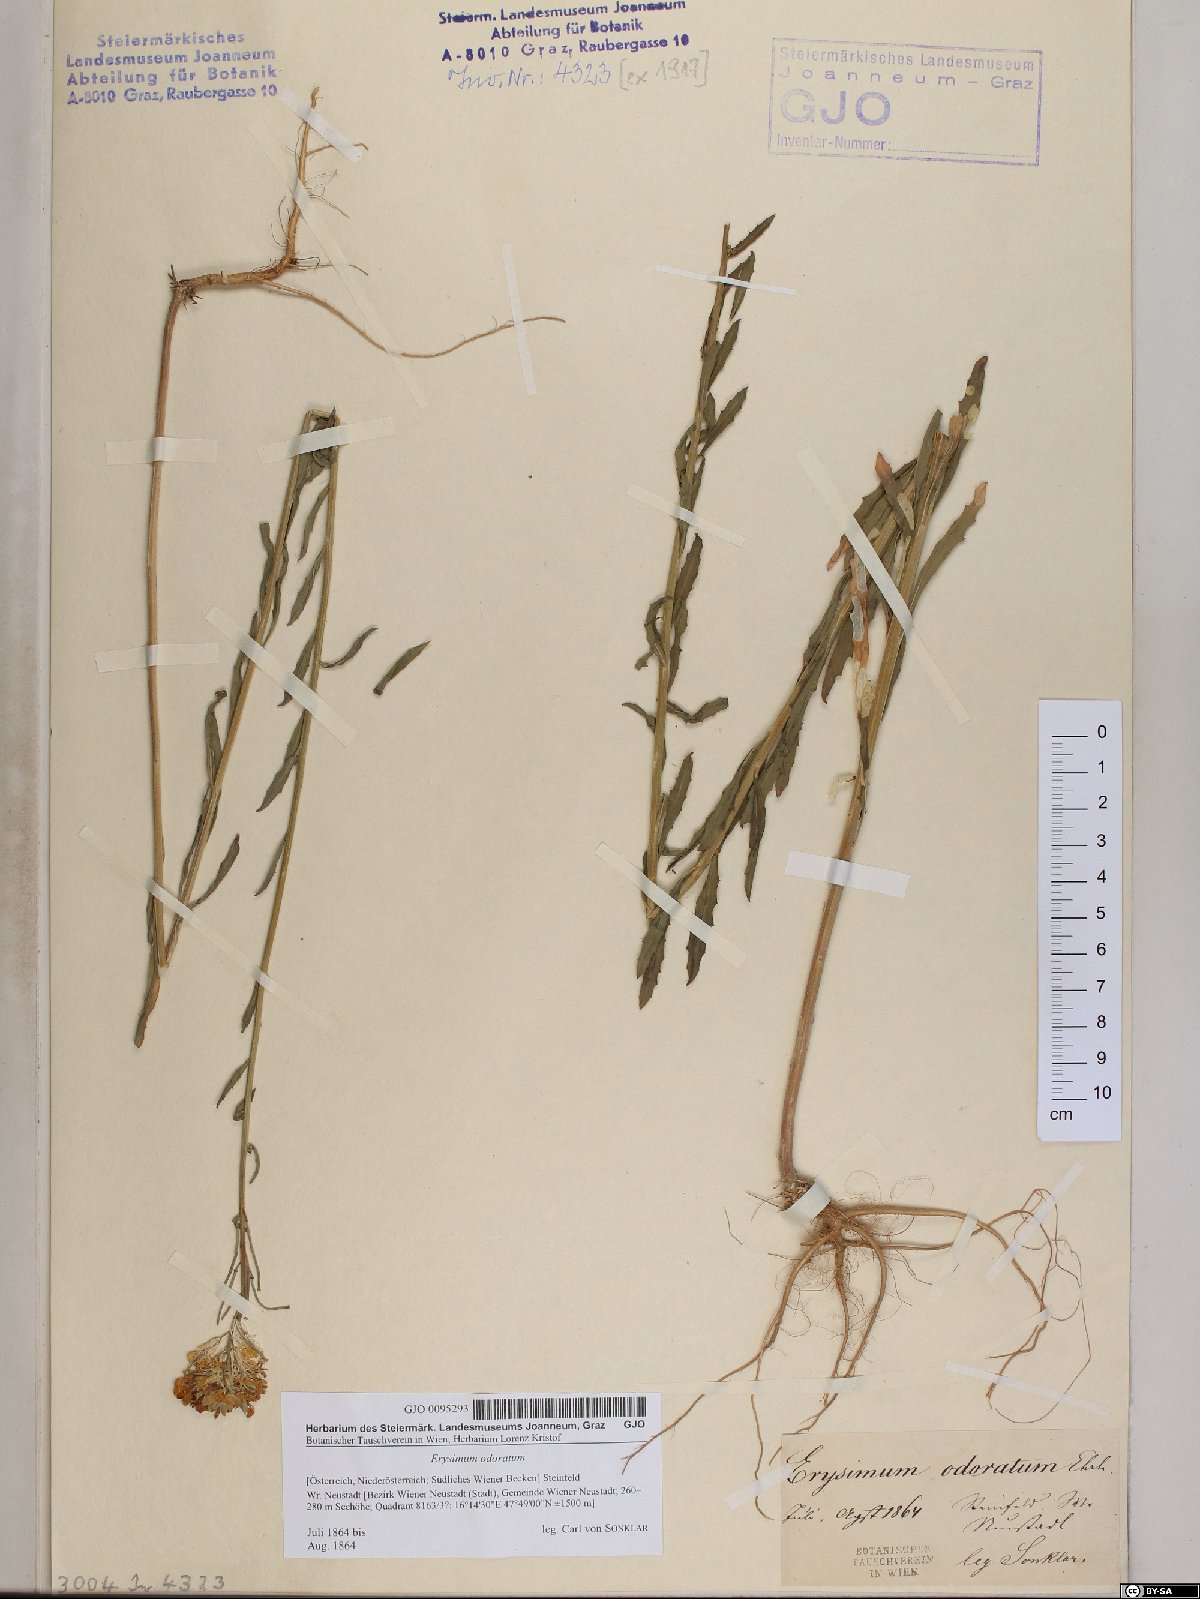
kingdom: Plantae
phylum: Tracheophyta
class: Magnoliopsida
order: Brassicales
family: Brassicaceae
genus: Erysimum
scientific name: Erysimum odoratum
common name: Smelly wallflower
